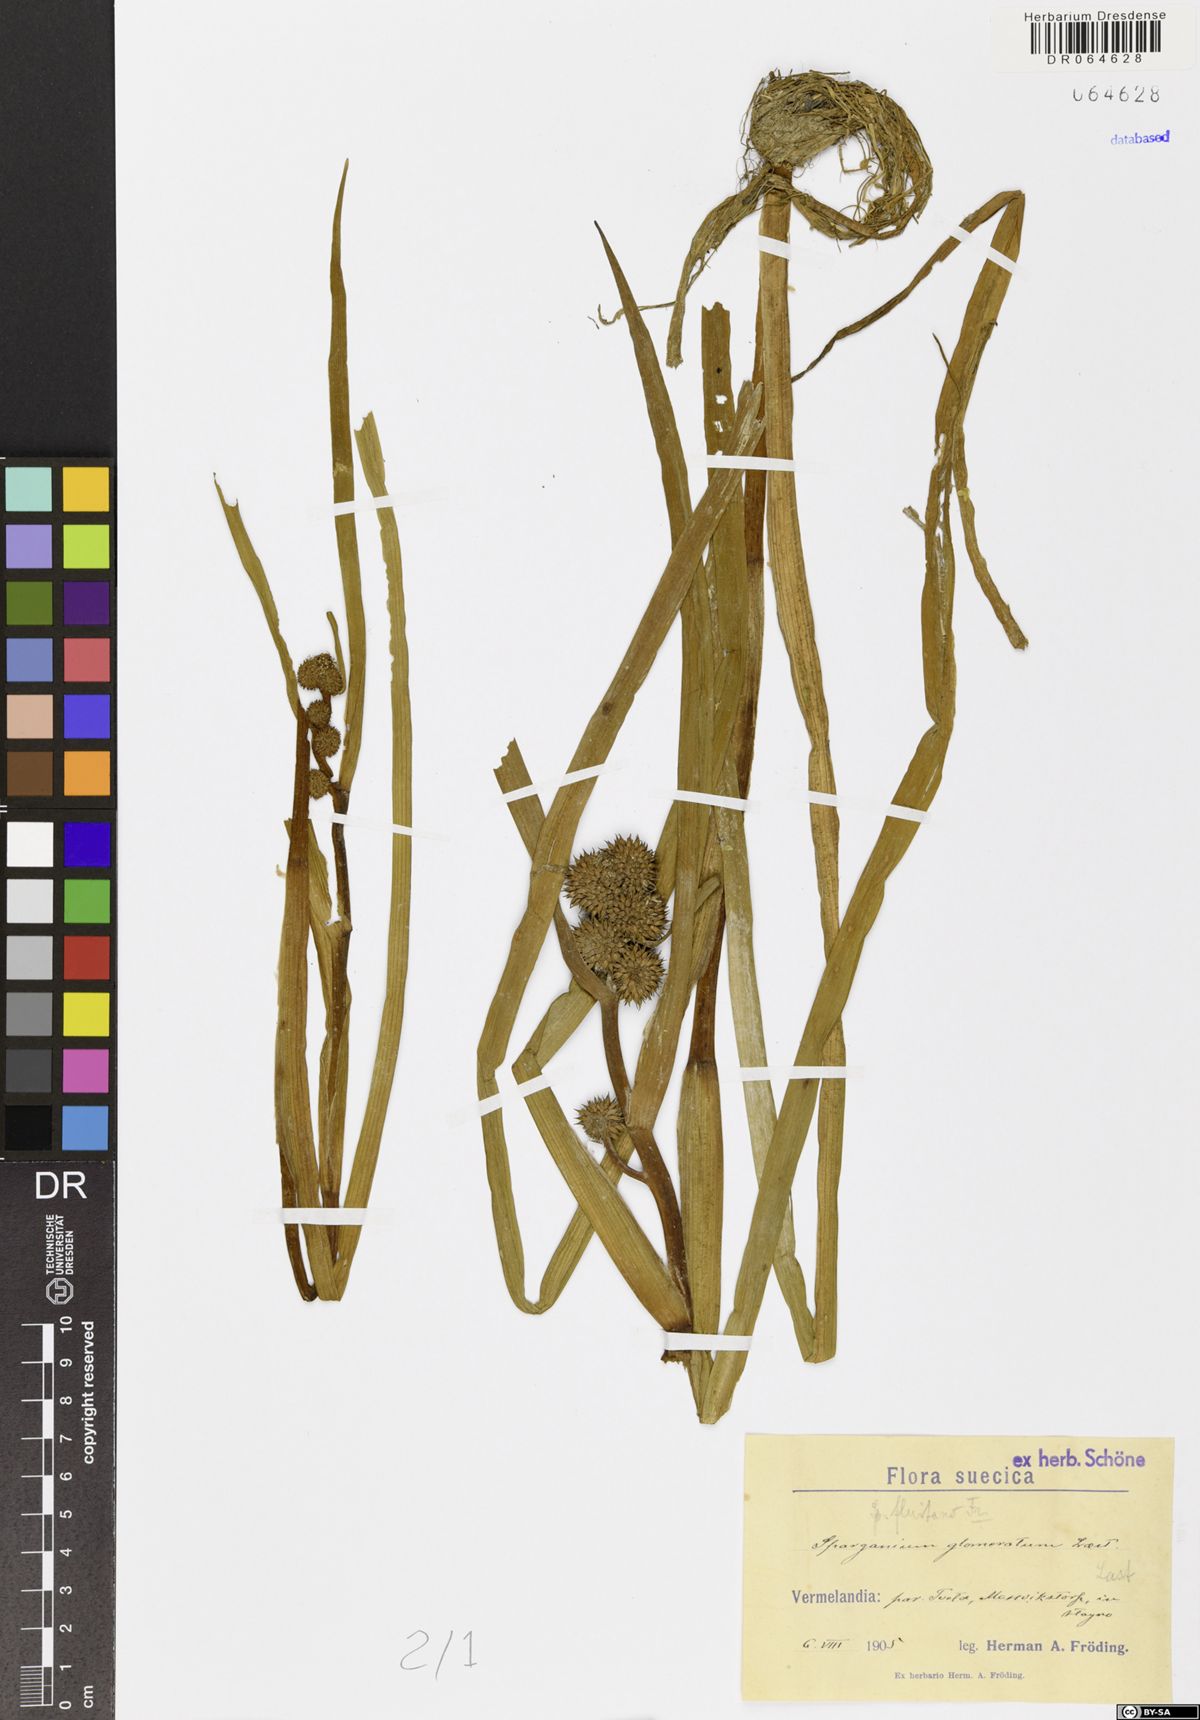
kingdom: Plantae
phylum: Tracheophyta
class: Liliopsida
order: Poales
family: Typhaceae
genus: Sparganium
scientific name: Sparganium glomeratum
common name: Clustered burreed
